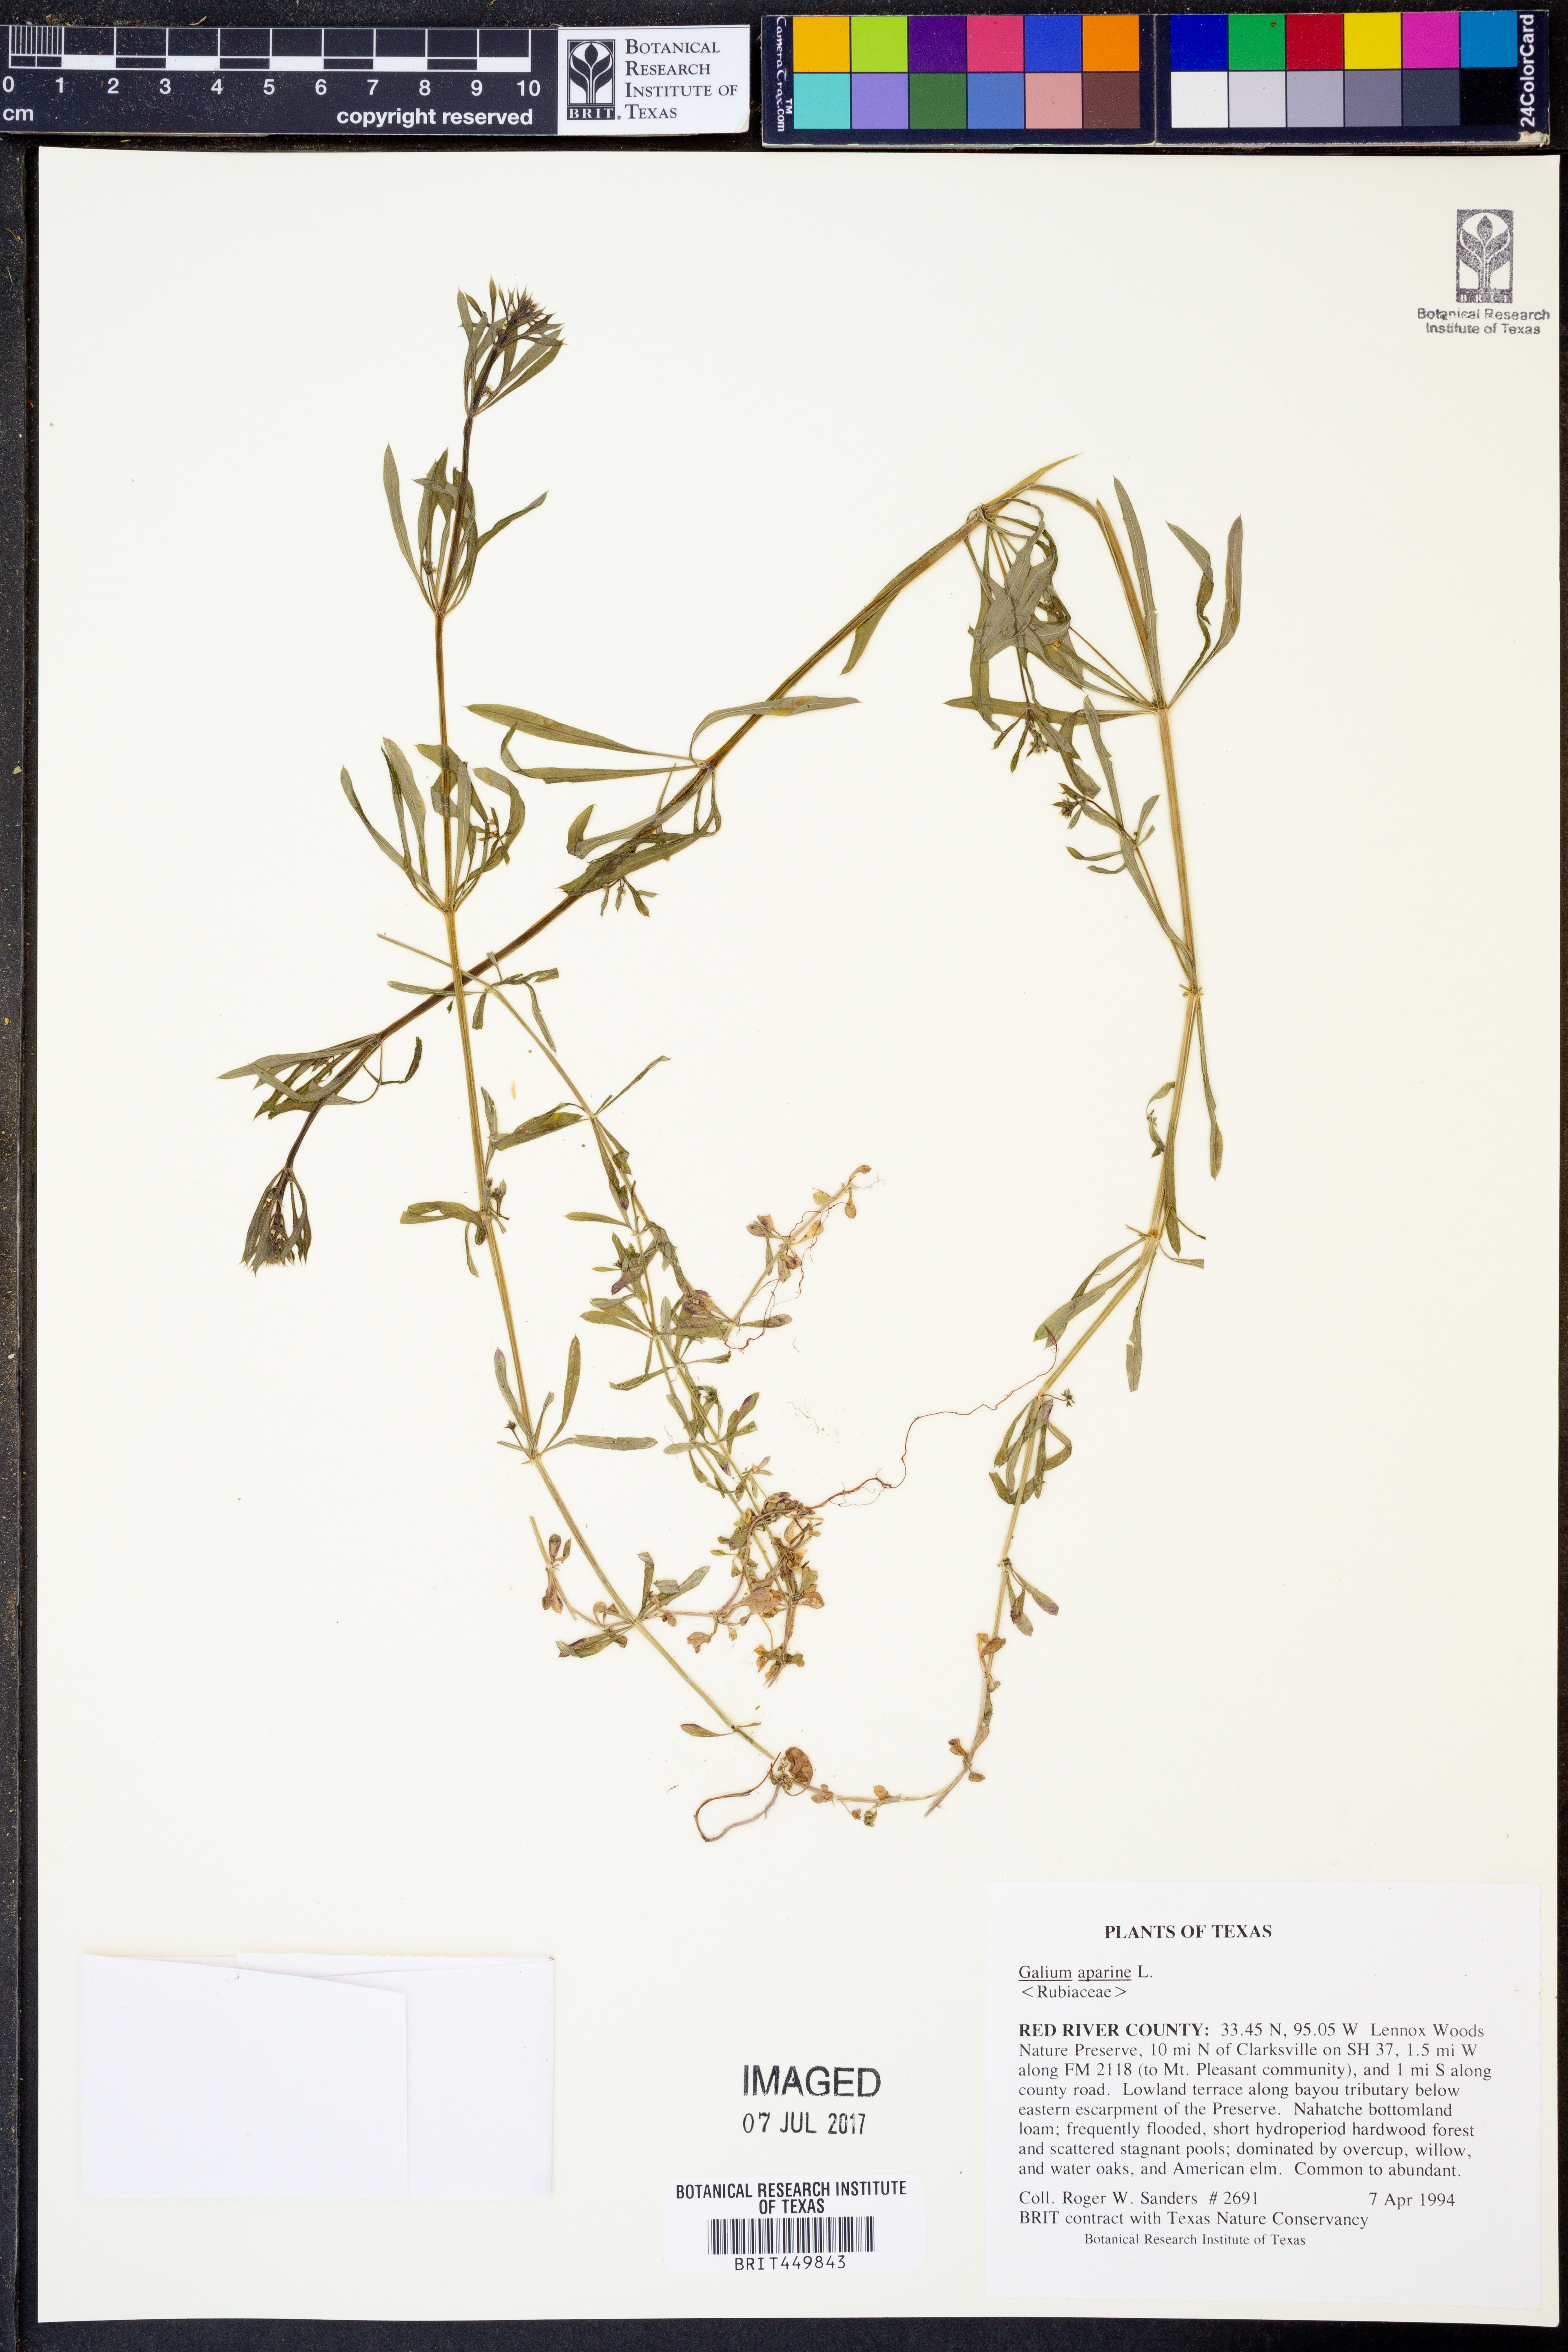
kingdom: Plantae
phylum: Tracheophyta
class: Magnoliopsida
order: Gentianales
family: Rubiaceae
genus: Galium
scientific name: Galium aparine
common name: Cleavers
